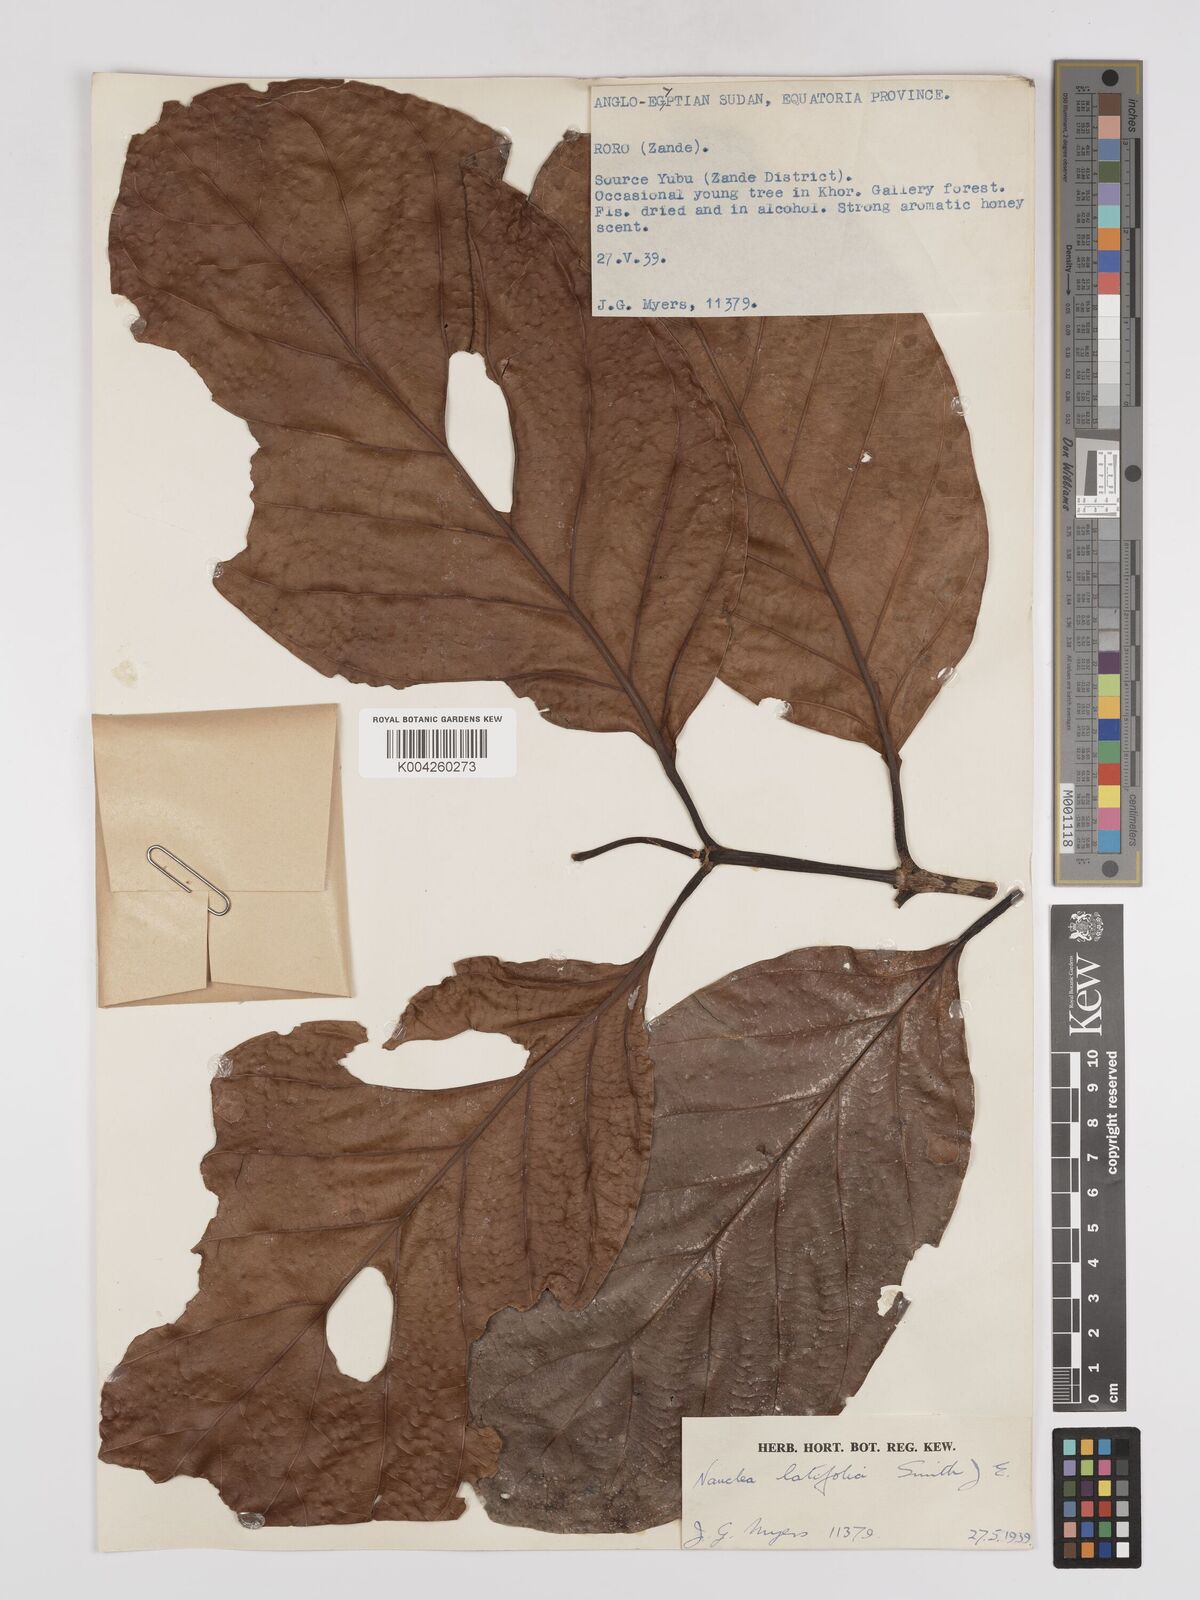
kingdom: Plantae
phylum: Tracheophyta
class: Magnoliopsida
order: Gentianales
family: Rubiaceae
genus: Nauclea
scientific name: Nauclea
